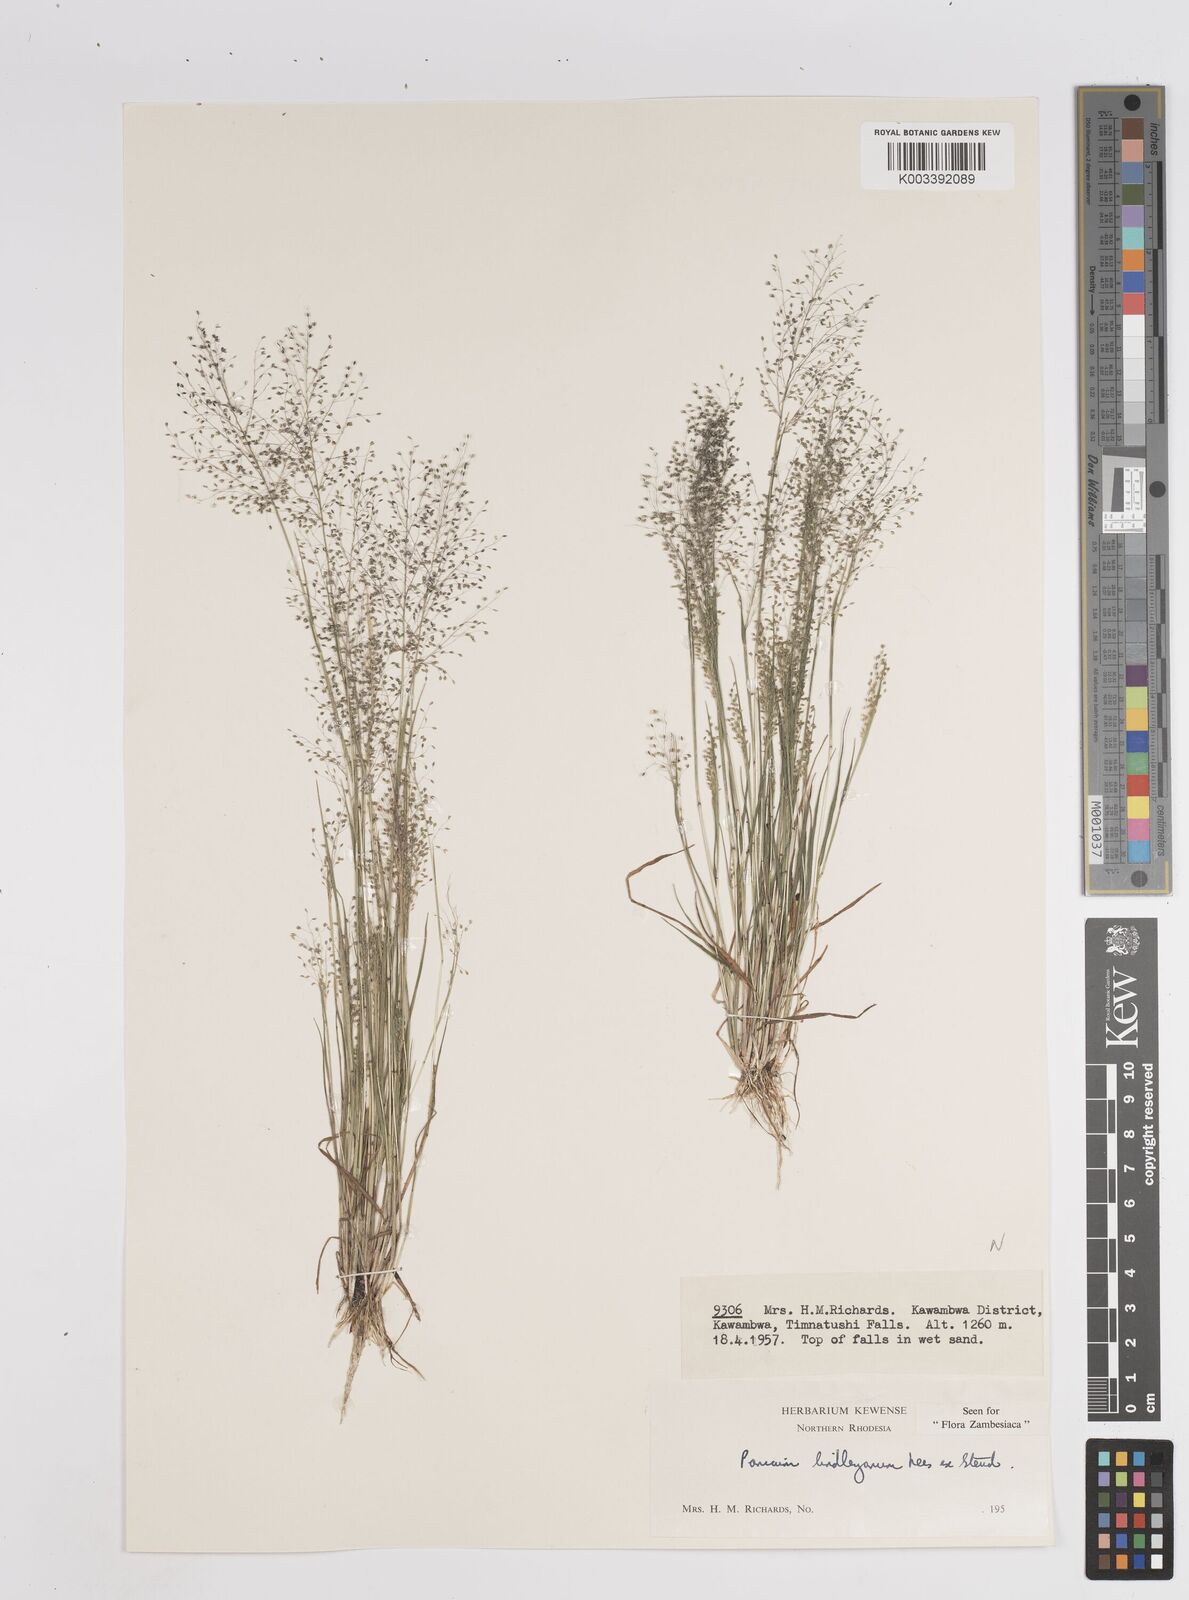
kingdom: Plantae
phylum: Tracheophyta
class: Liliopsida
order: Poales
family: Poaceae
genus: Trichanthecium
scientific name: Trichanthecium tenellum
